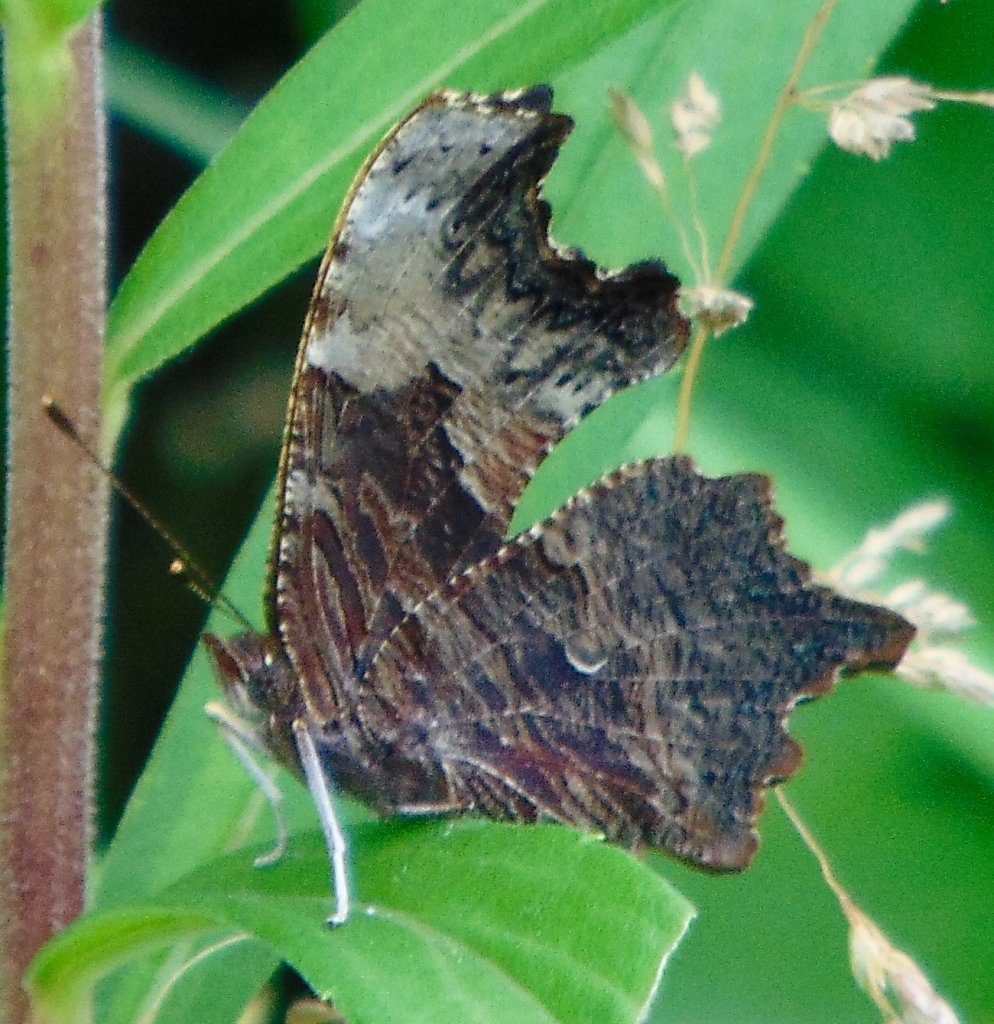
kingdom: Animalia
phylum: Arthropoda
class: Insecta
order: Lepidoptera
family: Nymphalidae
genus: Polygonia
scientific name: Polygonia progne
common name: Gray Comma
